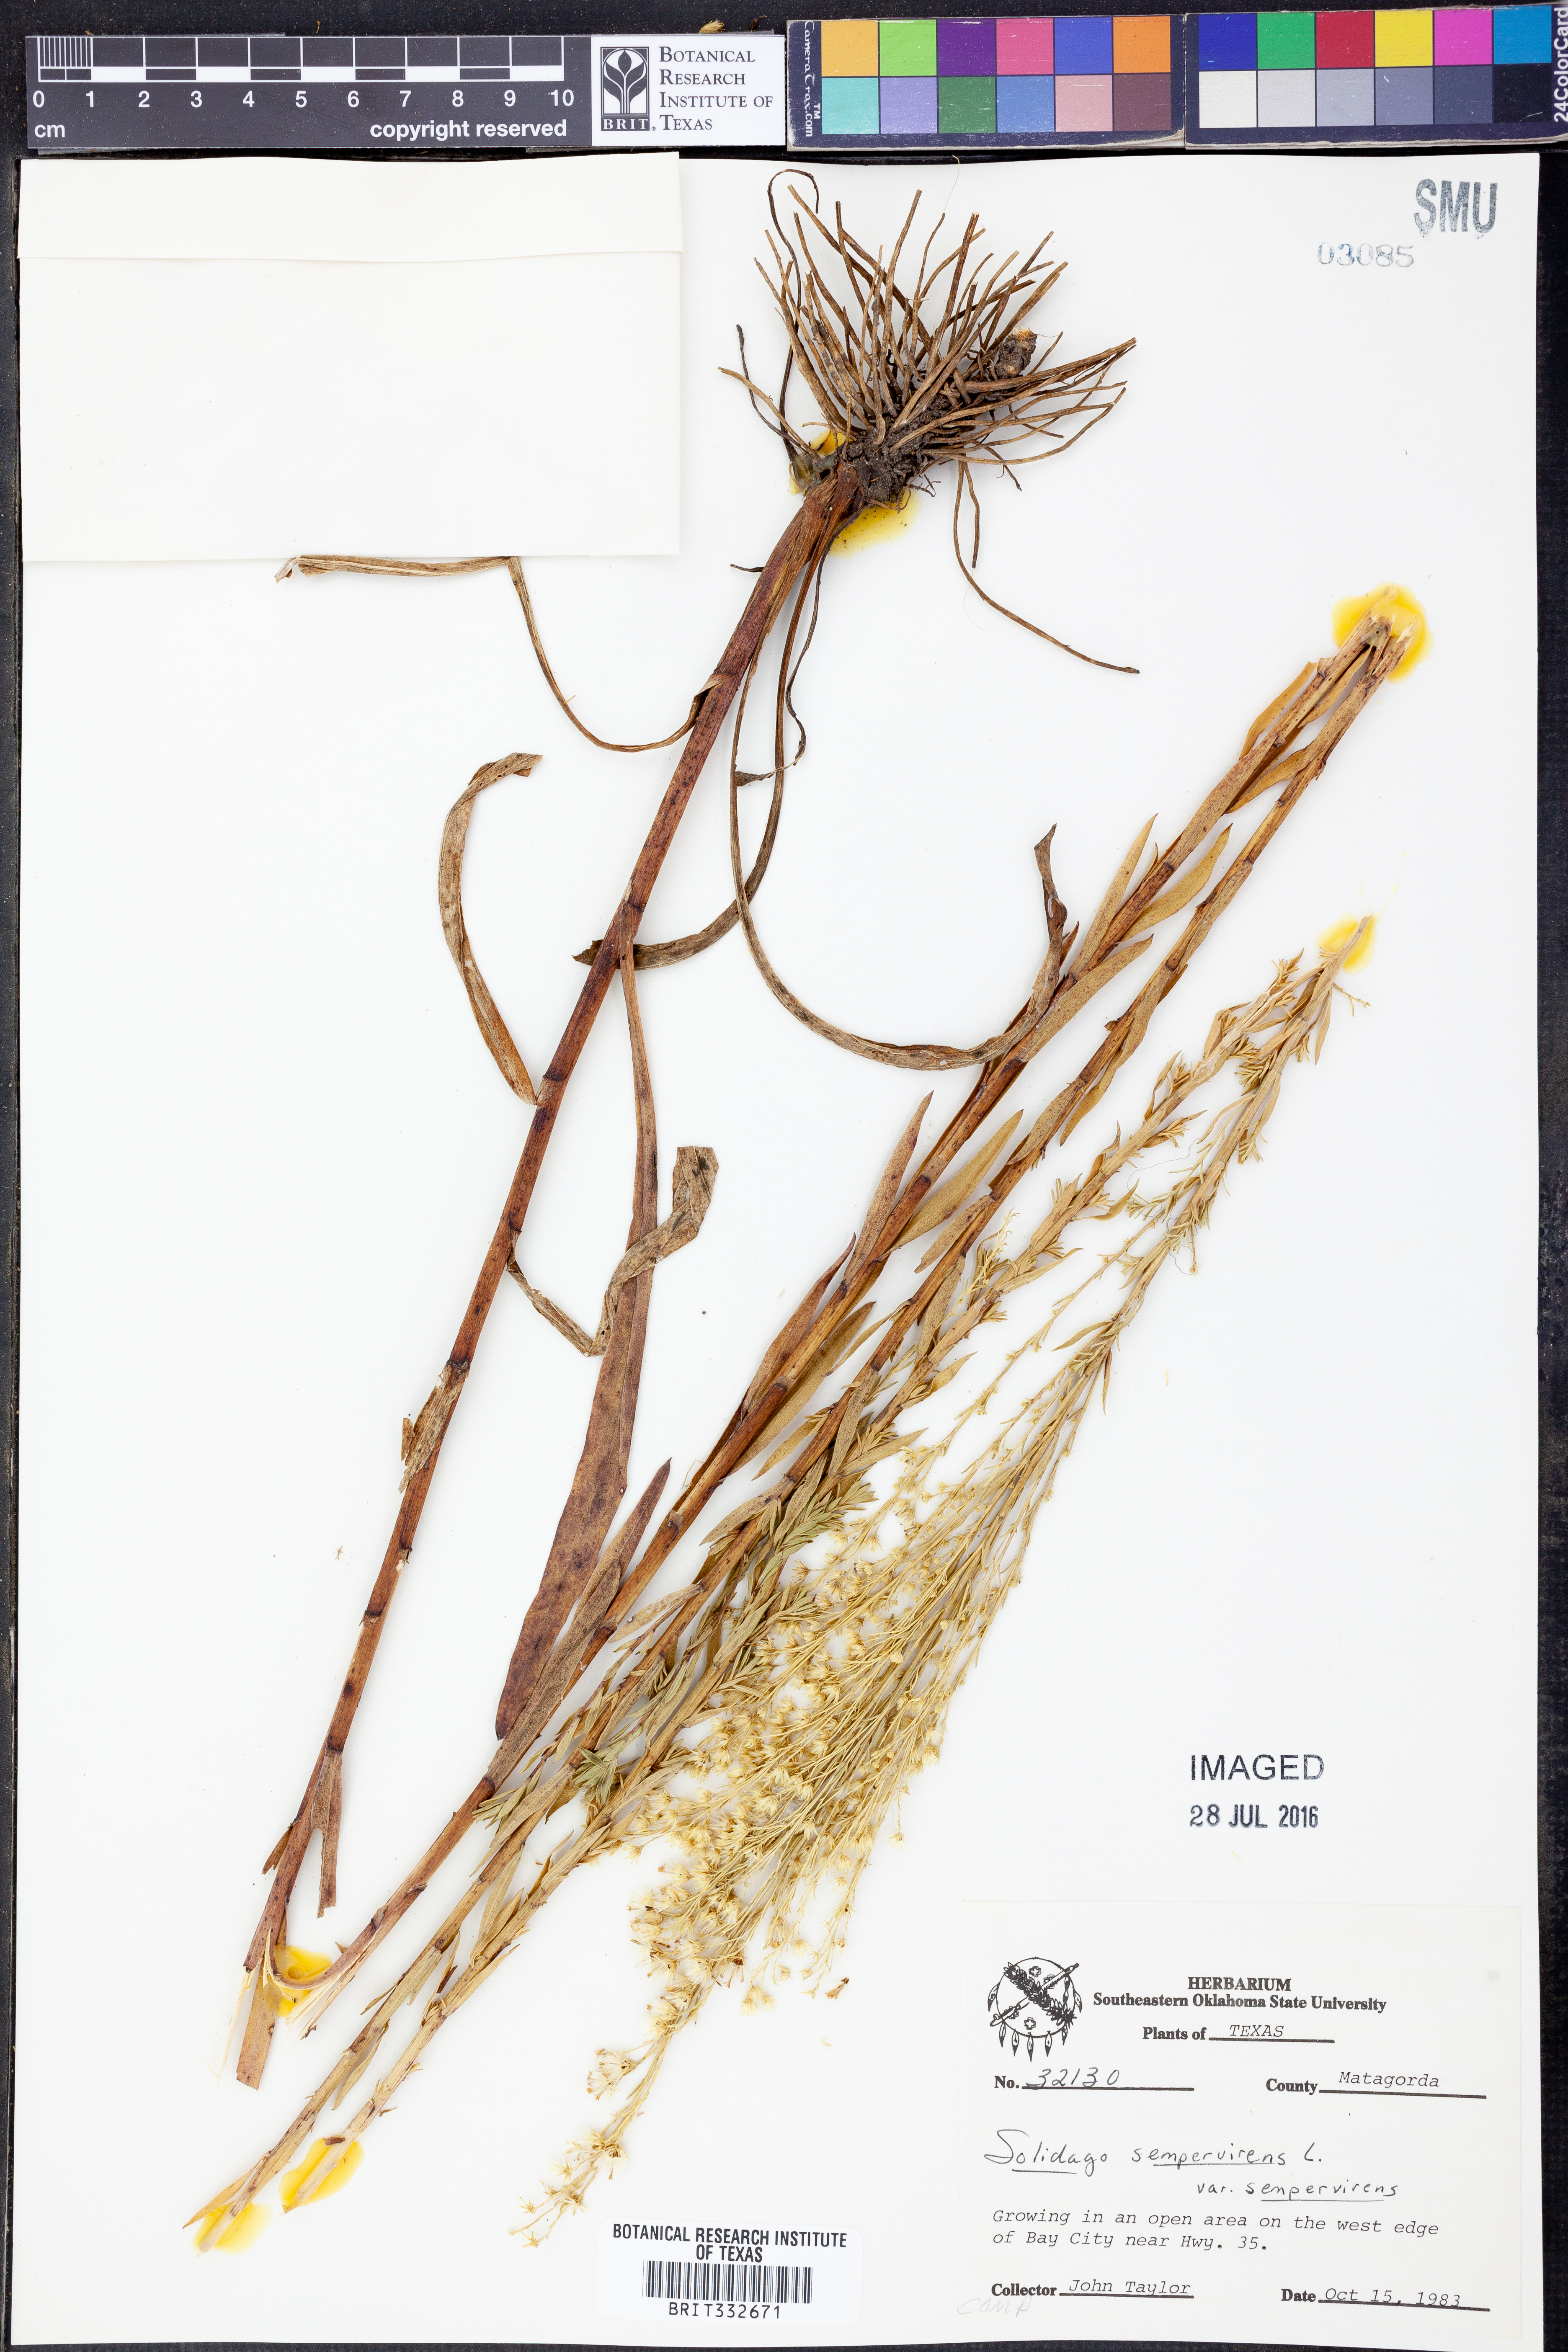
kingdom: Plantae
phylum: Tracheophyta
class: Magnoliopsida
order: Asterales
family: Asteraceae
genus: Solidago
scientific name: Solidago sempervirens
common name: Salt-marsh goldenrod
